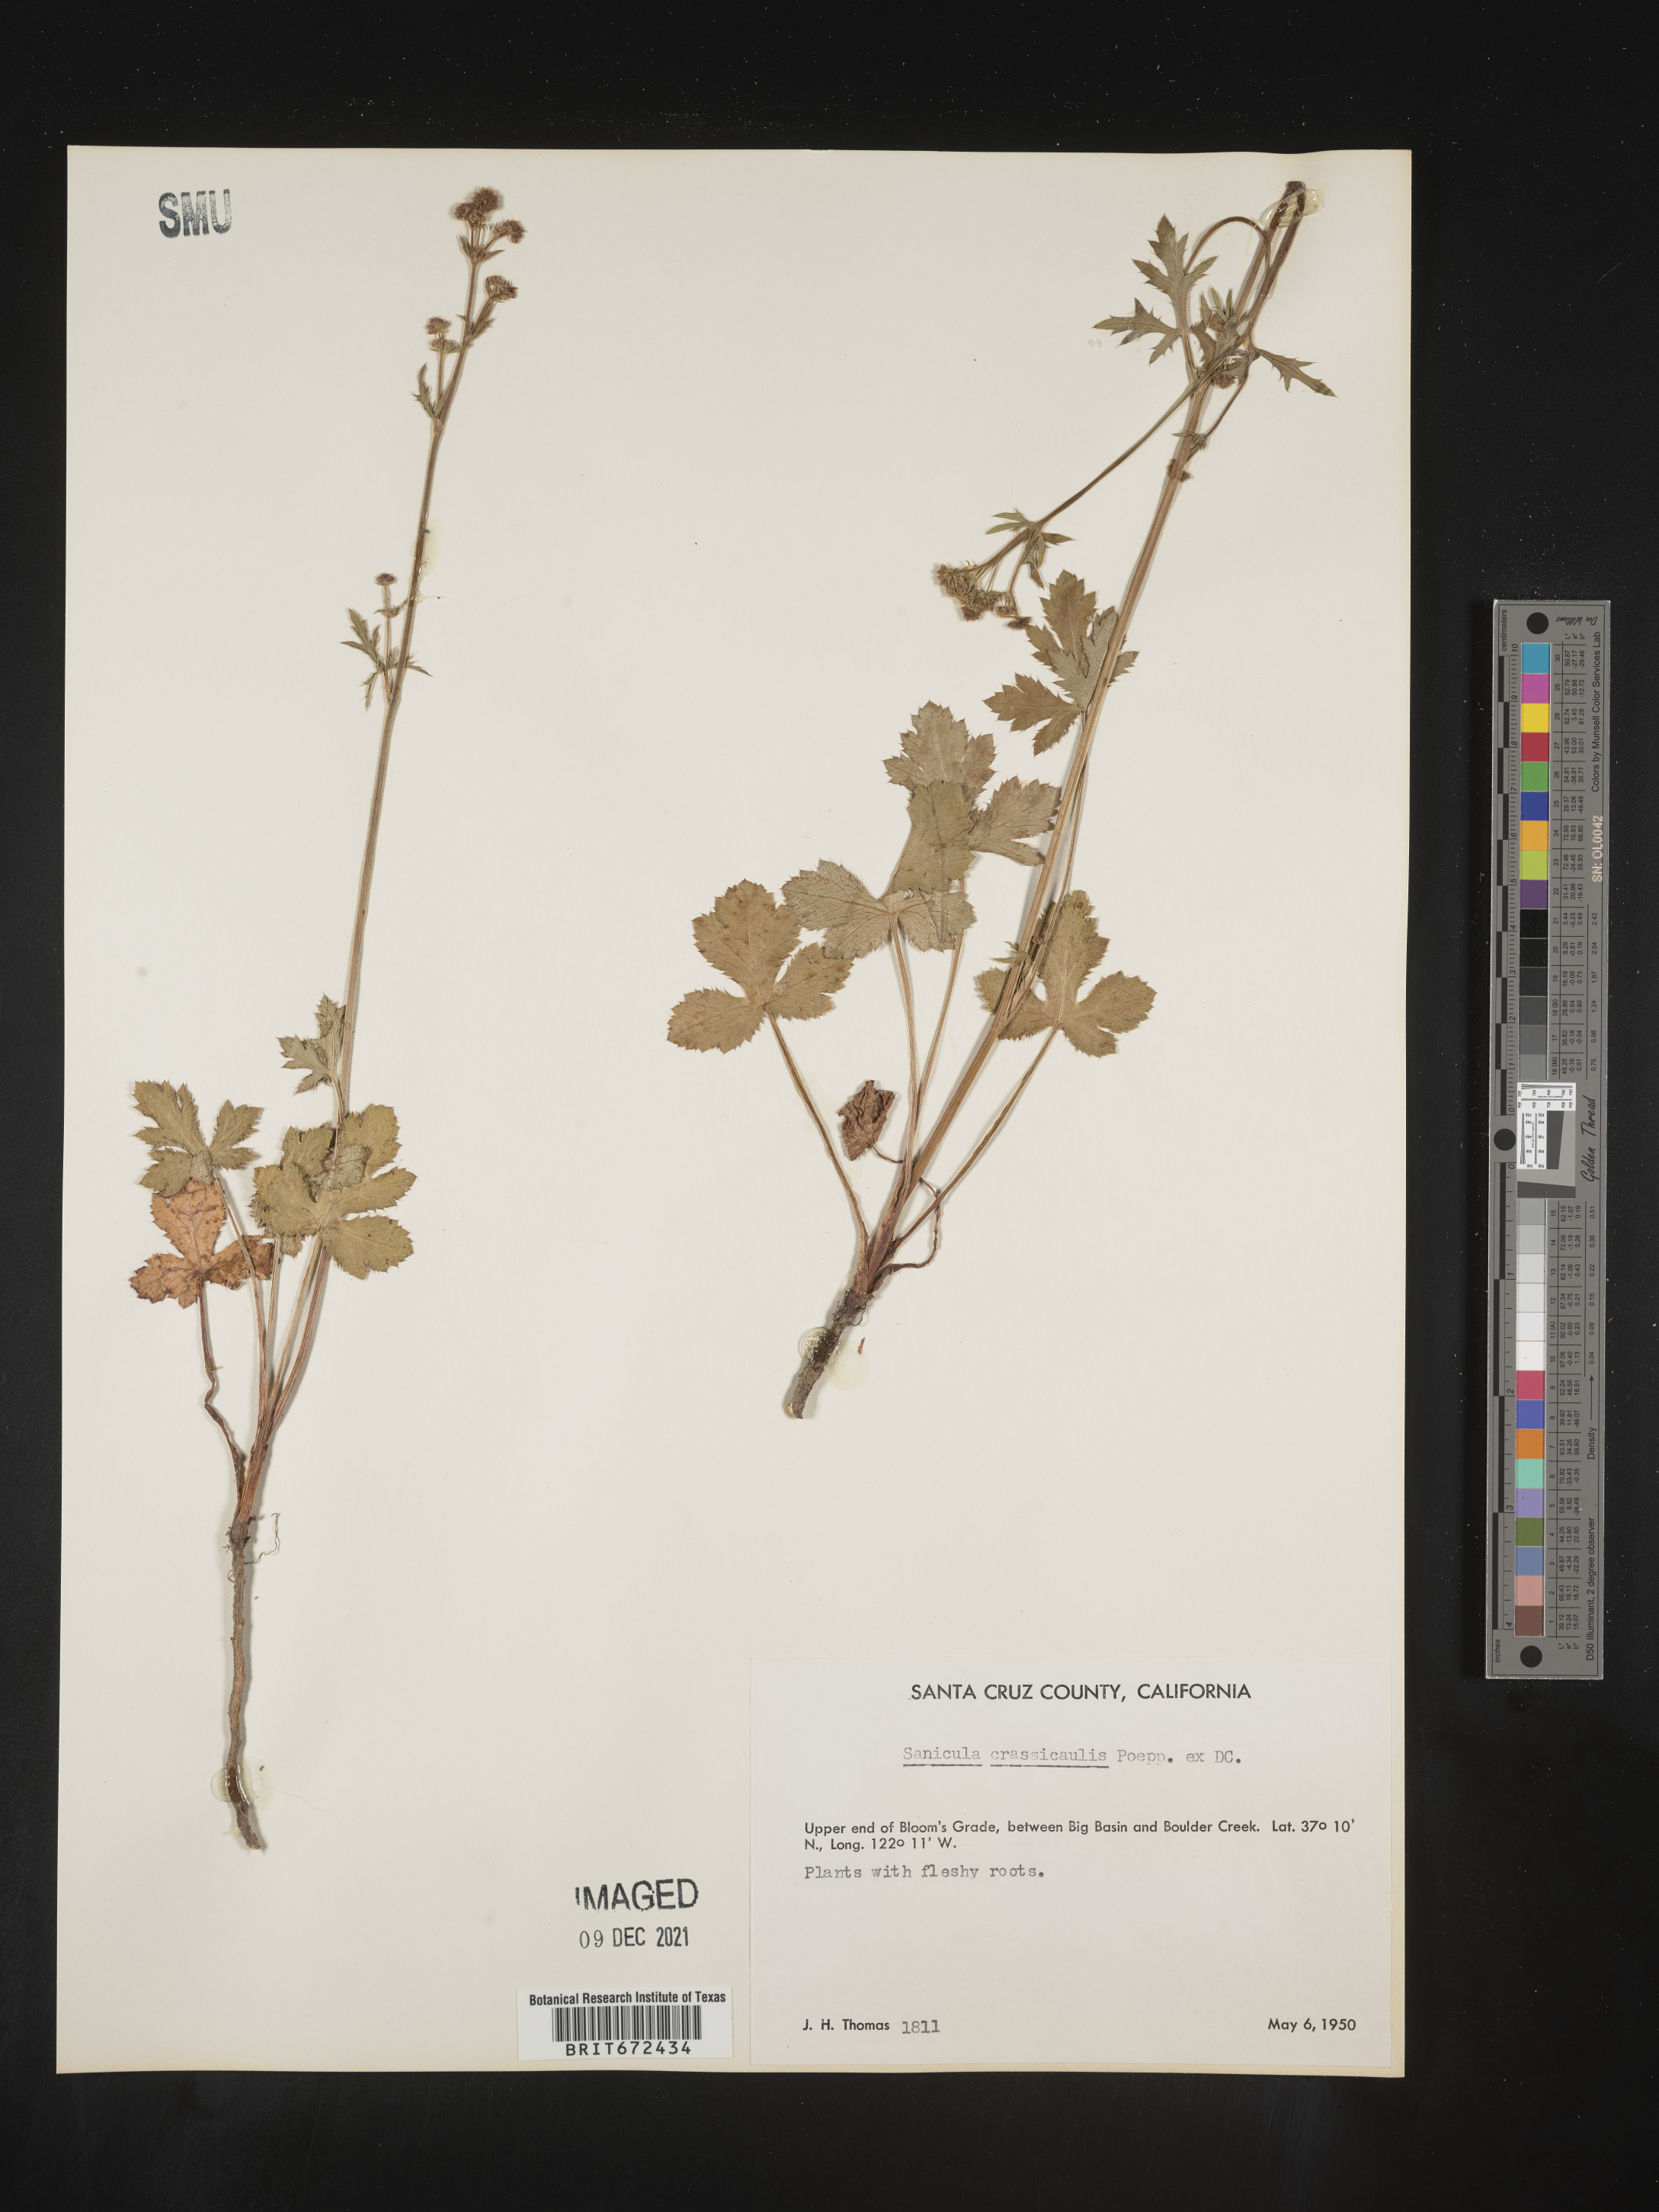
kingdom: Plantae
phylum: Tracheophyta
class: Magnoliopsida
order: Apiales
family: Apiaceae
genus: Sanicula
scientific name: Sanicula crassicaulis
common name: Western snakeroot
